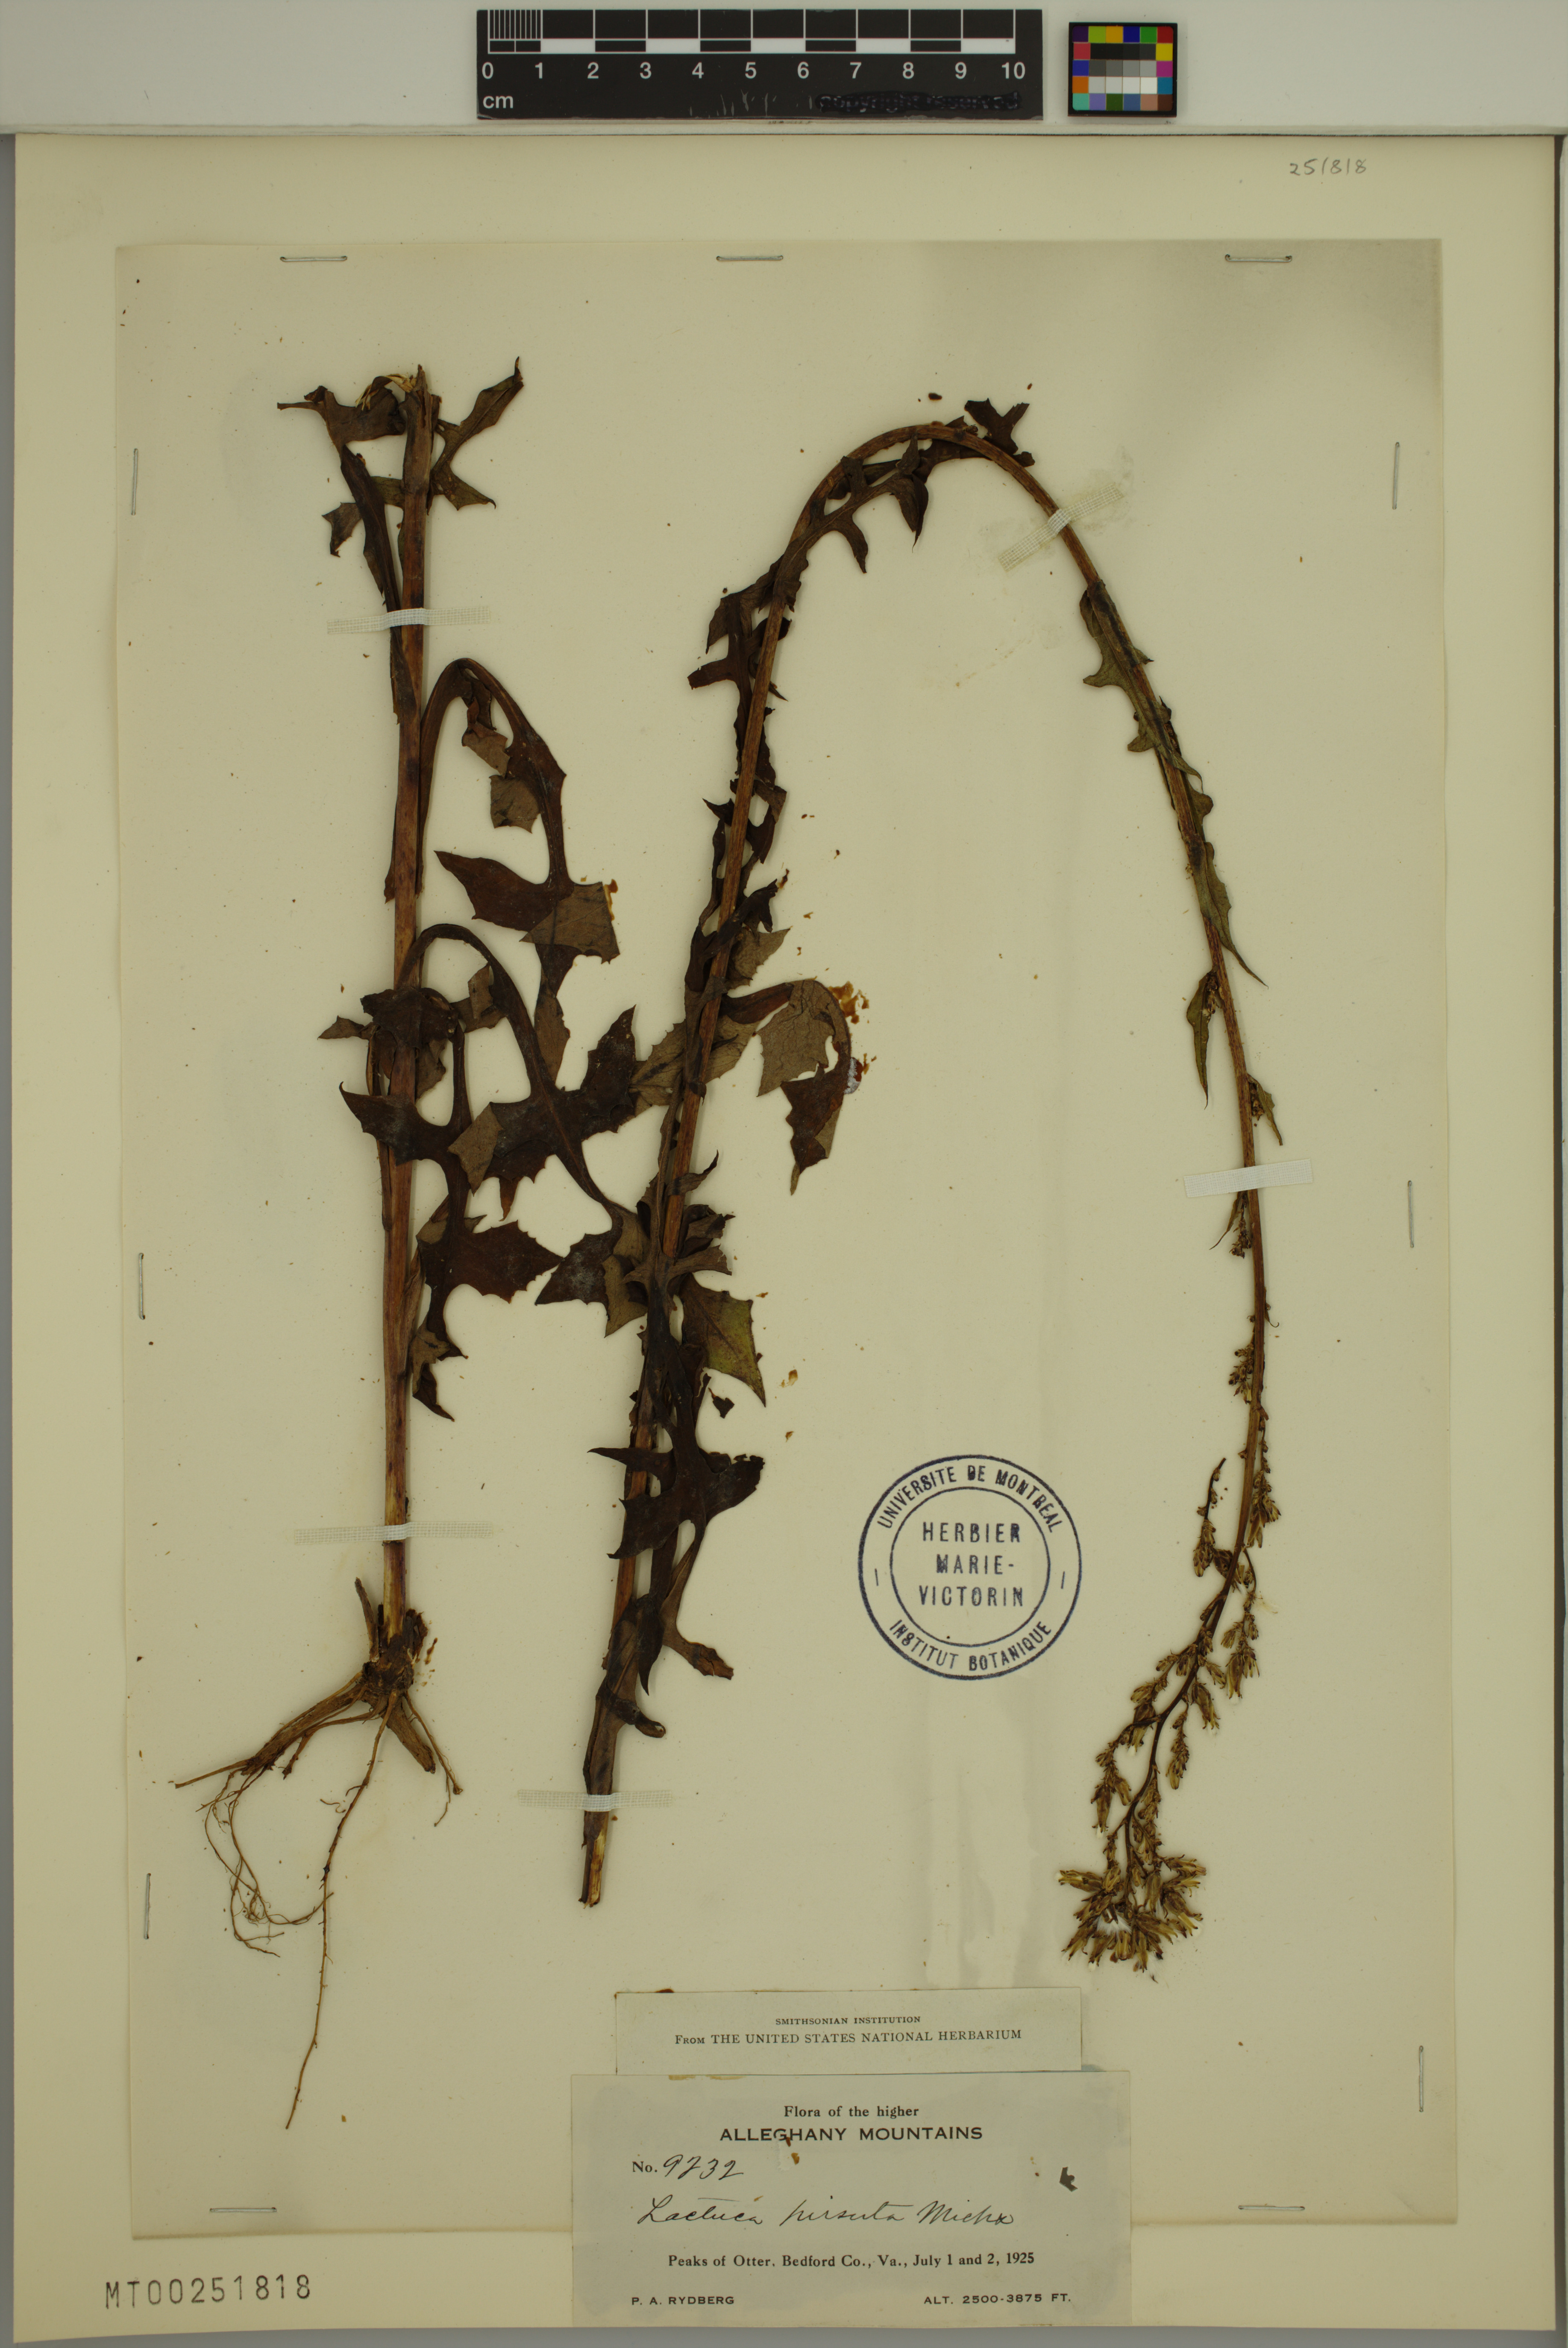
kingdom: Plantae
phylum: Tracheophyta
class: Magnoliopsida
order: Asterales
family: Asteraceae
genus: Lactuca
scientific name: Lactuca hirsuta
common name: Hairy lettuce
